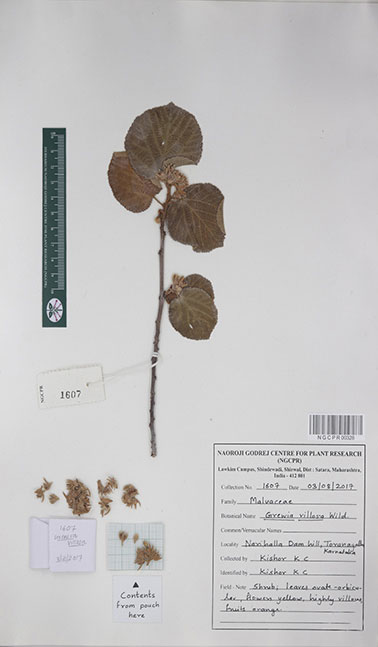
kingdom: Plantae
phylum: Tracheophyta
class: Magnoliopsida
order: Malvales
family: Malvaceae
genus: Grewia
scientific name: Grewia villosa
